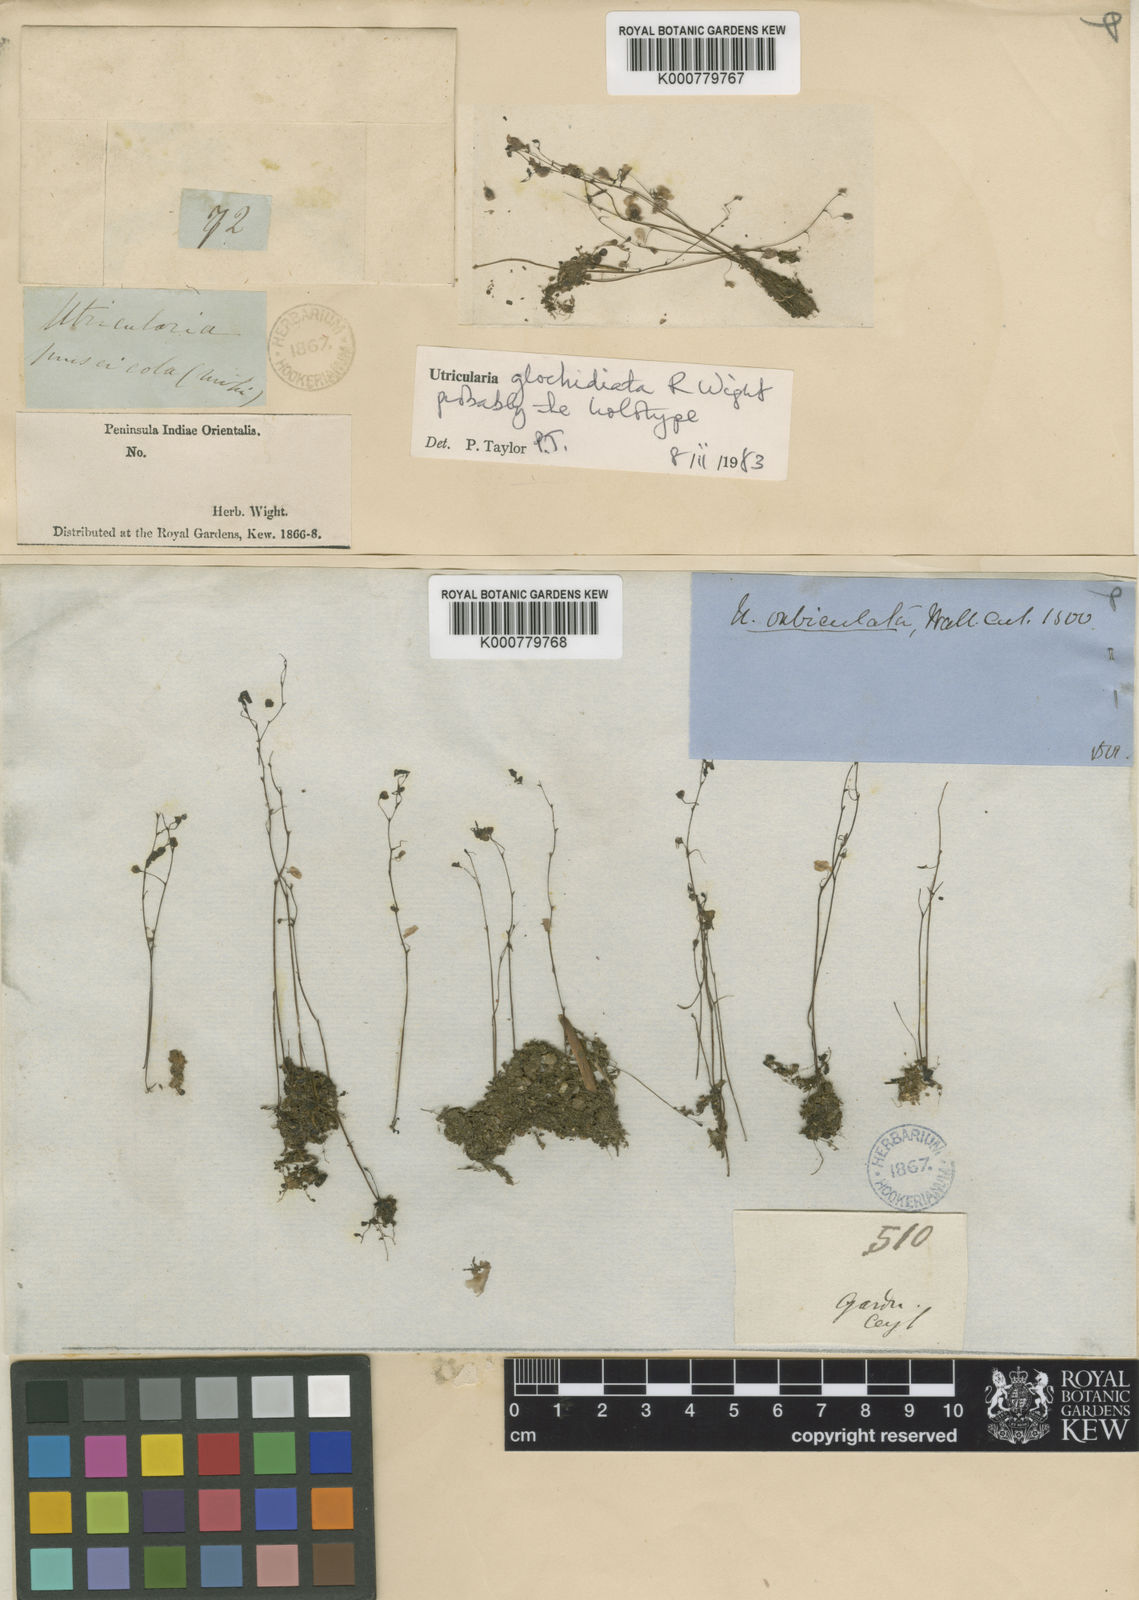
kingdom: Plantae
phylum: Tracheophyta
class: Magnoliopsida
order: Lamiales
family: Lentibulariaceae
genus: Utricularia
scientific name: Utricularia striatula
